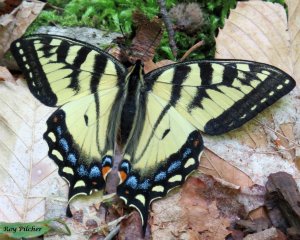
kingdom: Animalia
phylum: Arthropoda
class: Insecta
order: Lepidoptera
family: Papilionidae
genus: Pterourus
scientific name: Pterourus canadensis
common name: Canadian Tiger Swallowtail
